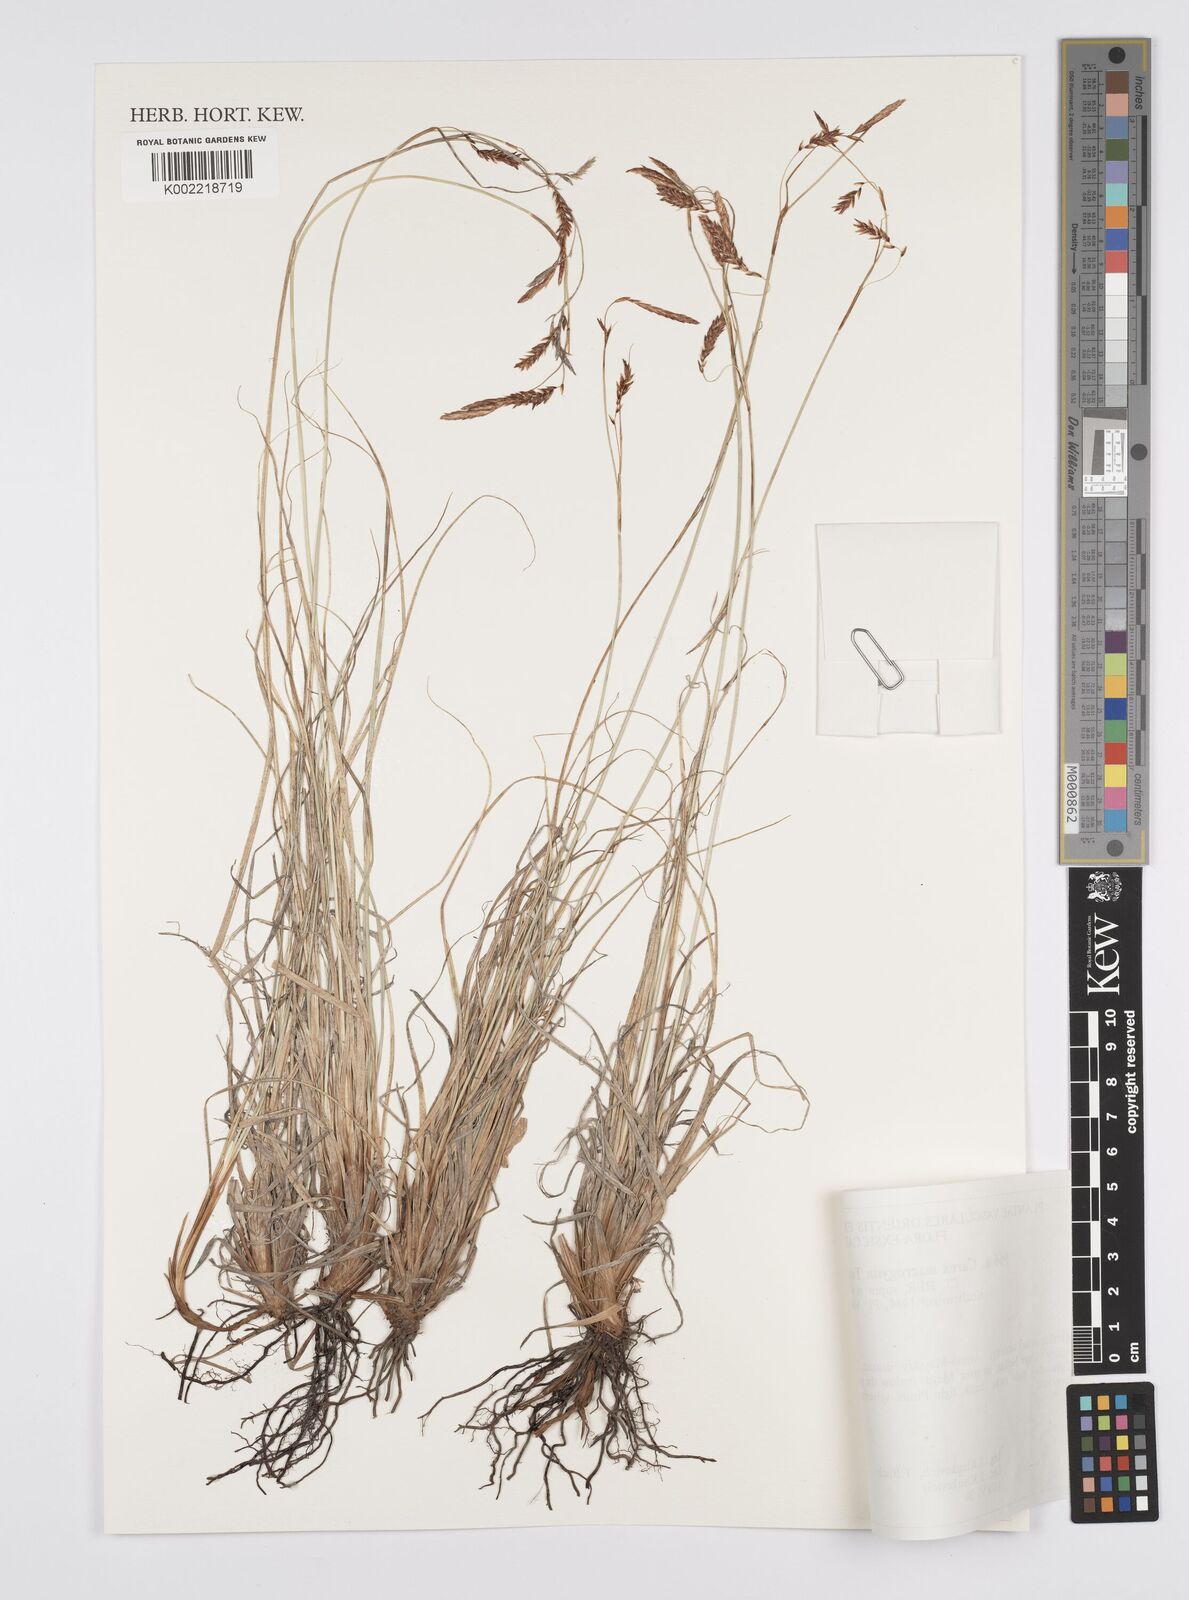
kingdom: Plantae
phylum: Tracheophyta
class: Liliopsida
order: Poales
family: Cyperaceae
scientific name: Cyperaceae
